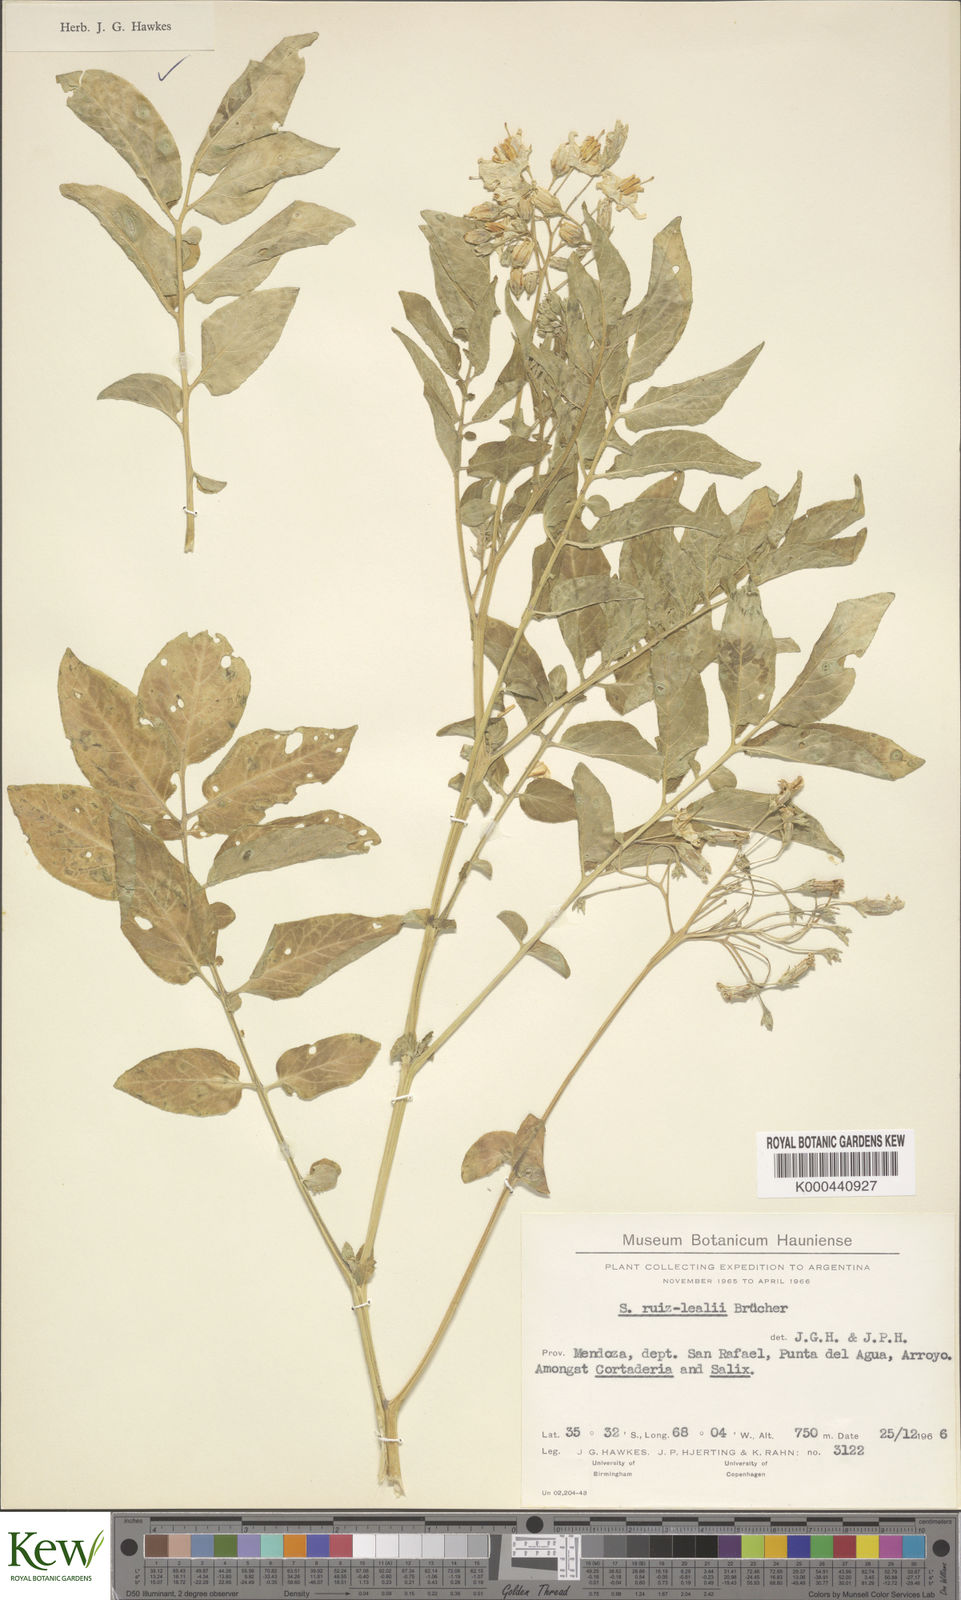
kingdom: Plantae
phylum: Tracheophyta
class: Magnoliopsida
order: Solanales
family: Solanaceae
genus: Solanum
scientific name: Solanum
